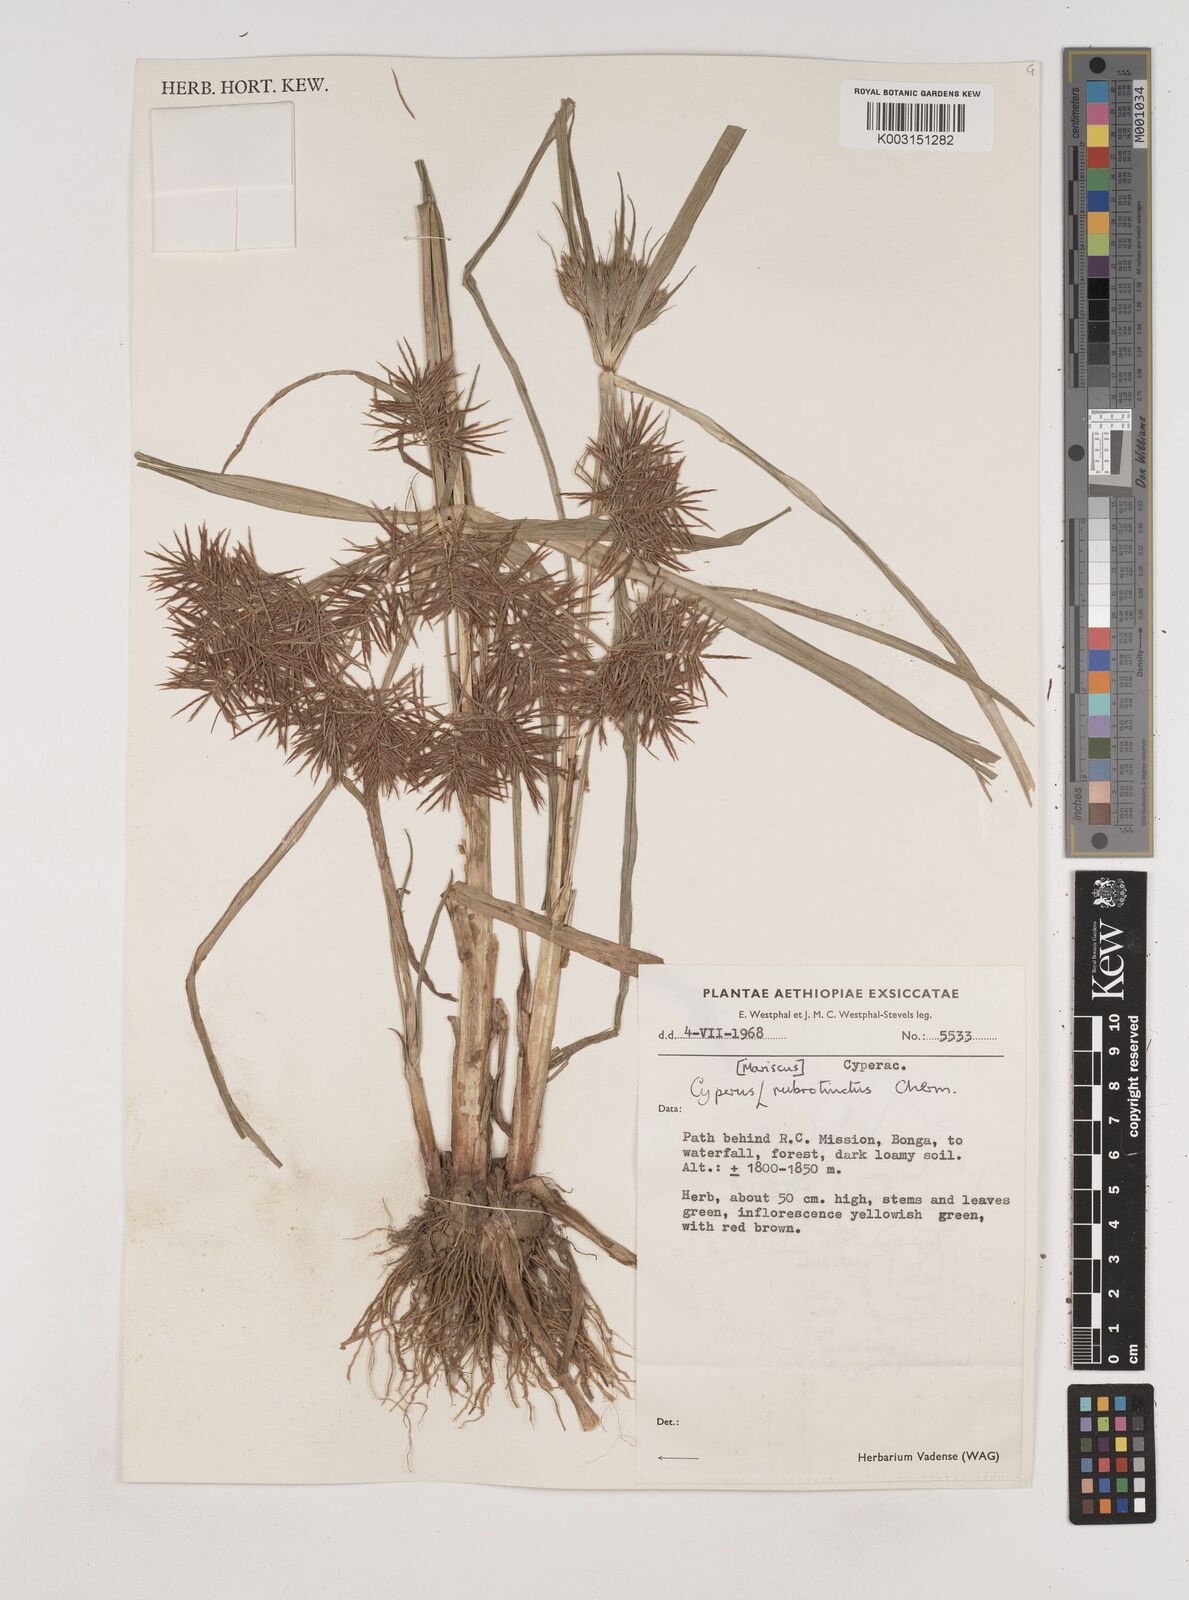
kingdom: Plantae
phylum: Tracheophyta
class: Liliopsida
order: Poales
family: Cyperaceae
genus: Cyperus
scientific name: Cyperus distans
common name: Slender cyperus
